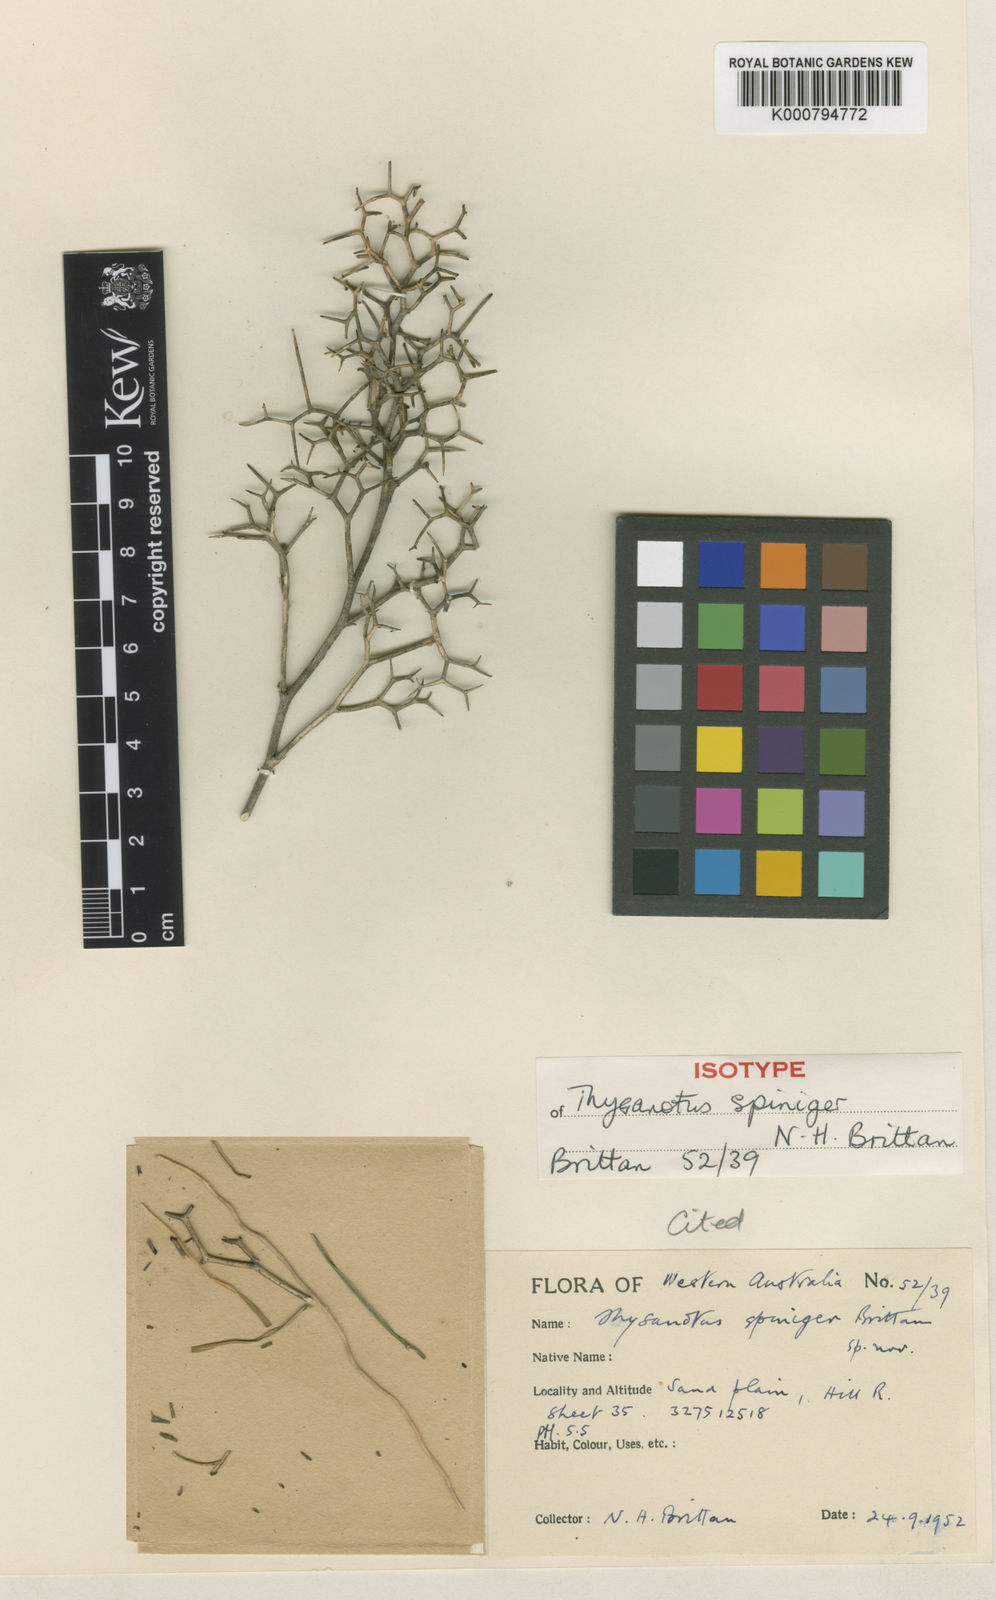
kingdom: Plantae
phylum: Tracheophyta
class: Liliopsida
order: Asparagales
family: Asparagaceae
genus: Thysanotus
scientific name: Thysanotus spiniger
